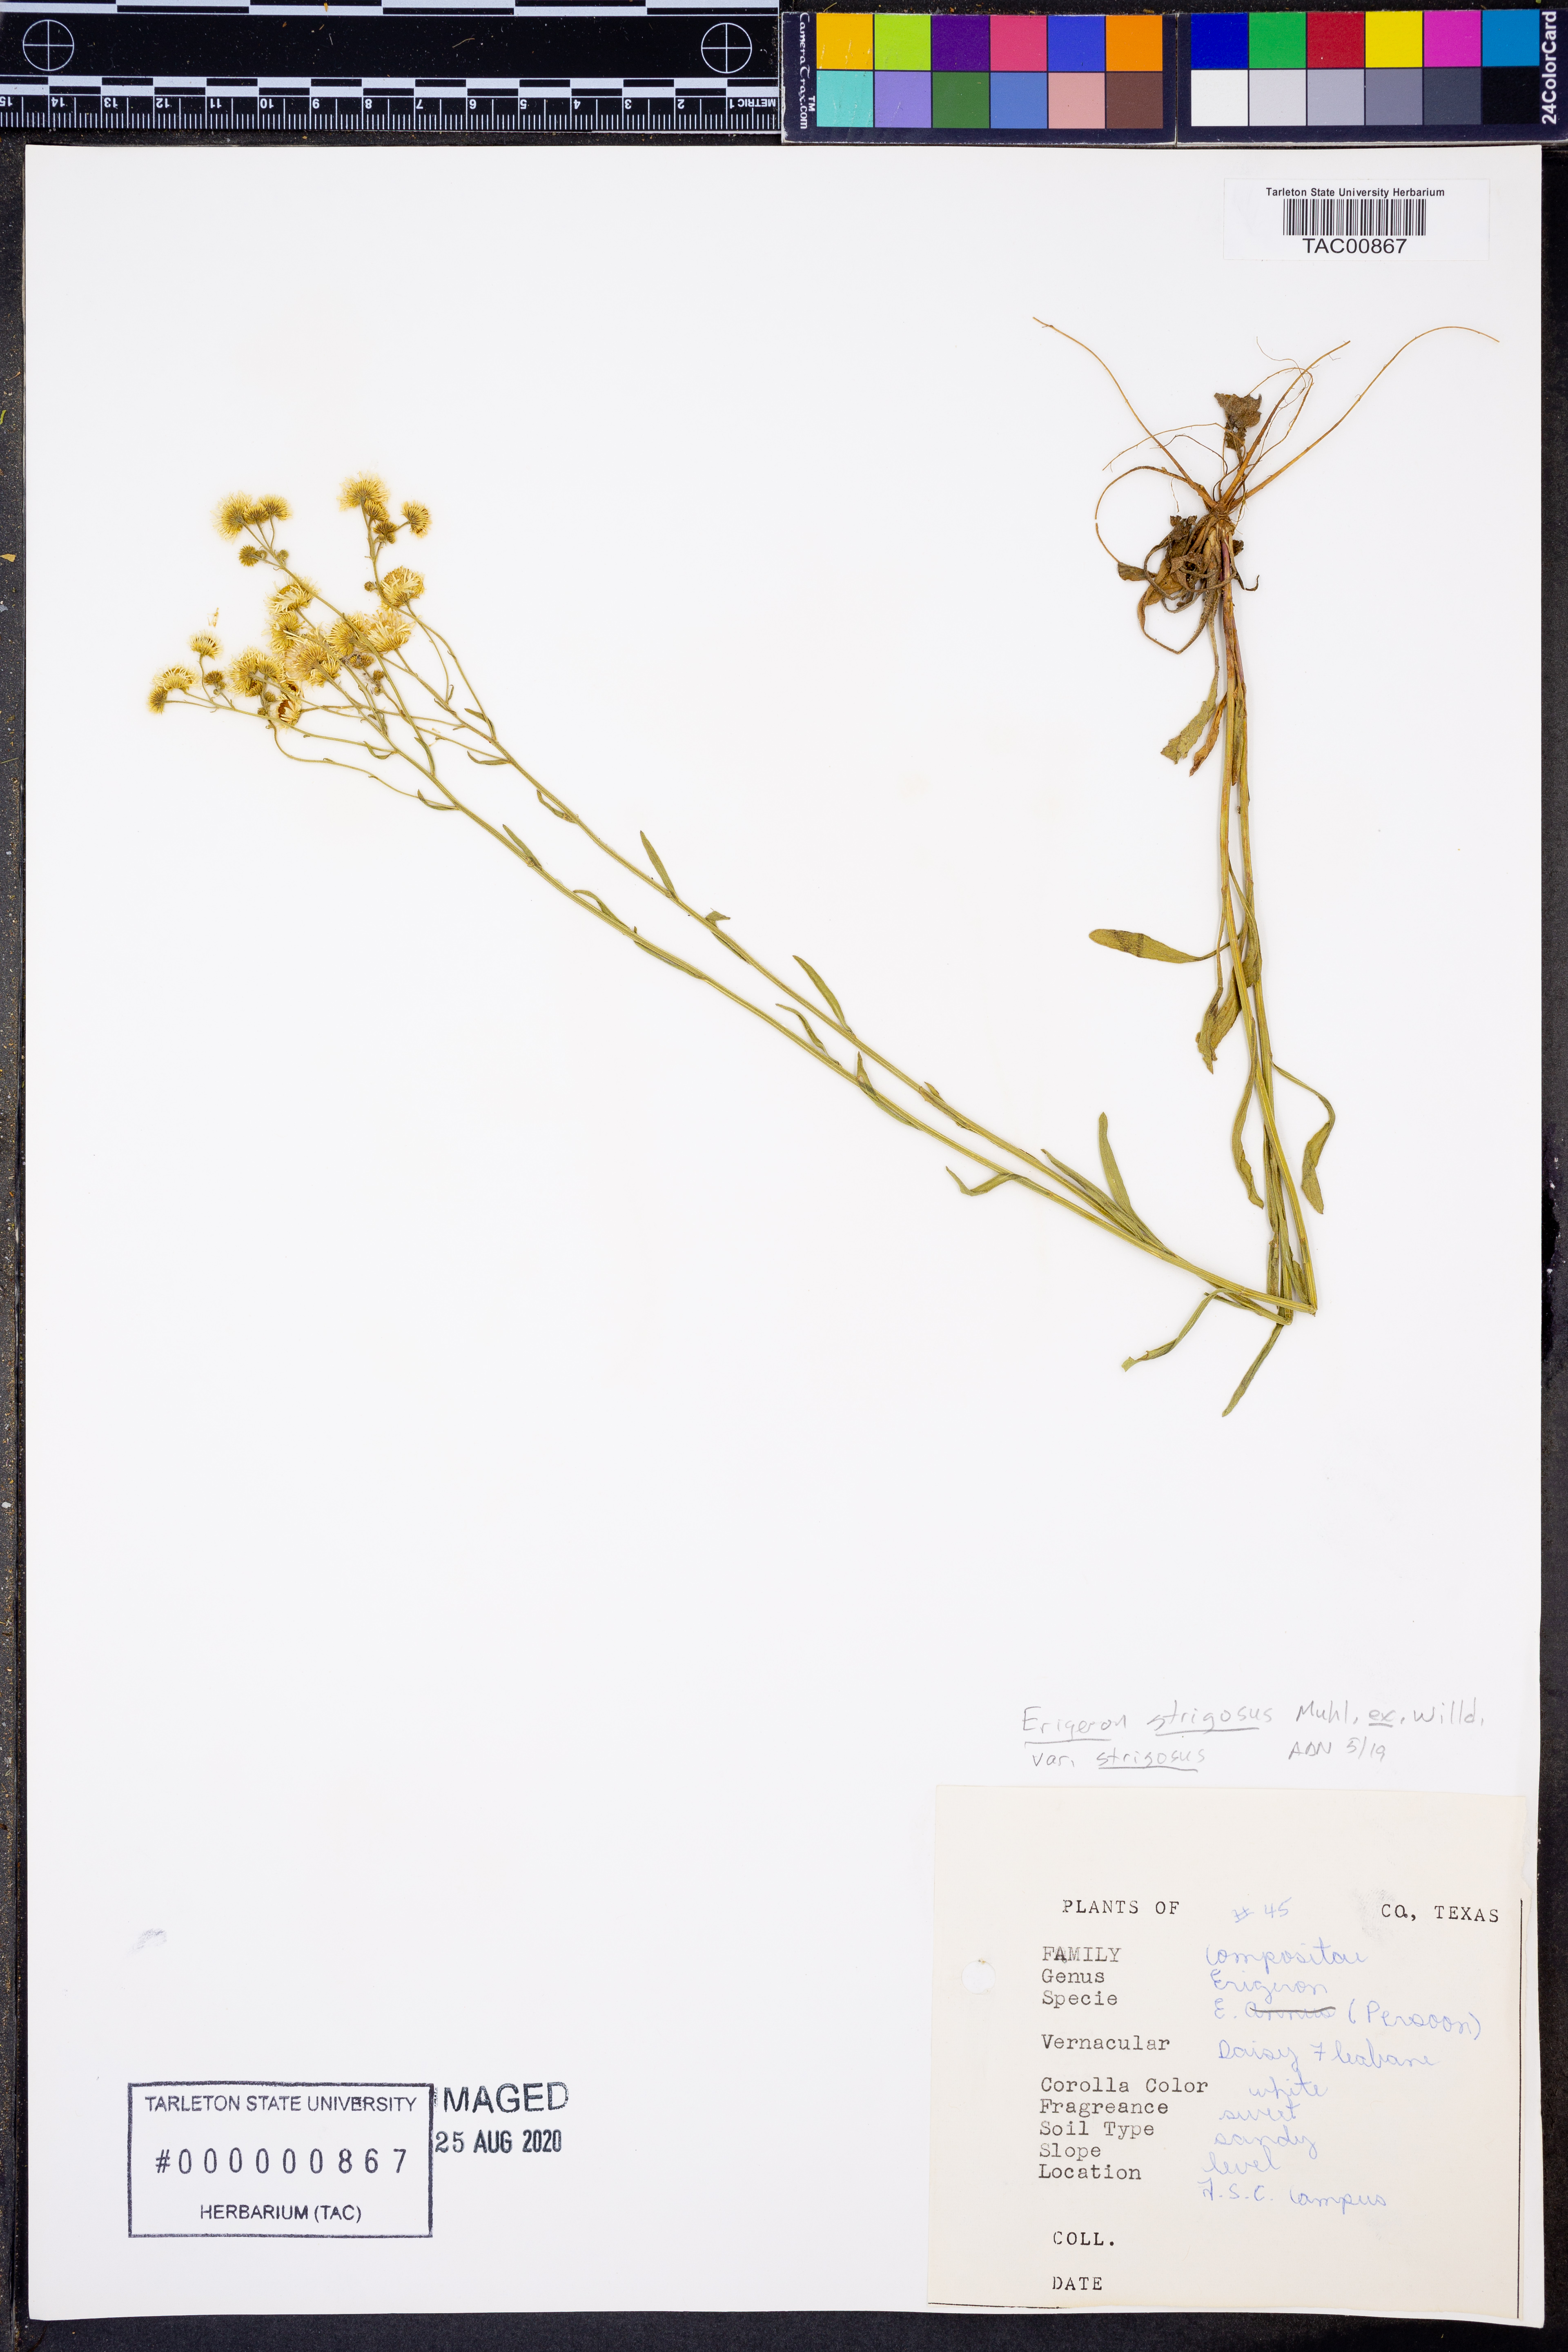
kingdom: Plantae
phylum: Tracheophyta
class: Magnoliopsida
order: Asterales
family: Asteraceae
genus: Erigeron
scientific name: Erigeron strigosus
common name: Common eastern fleabane
